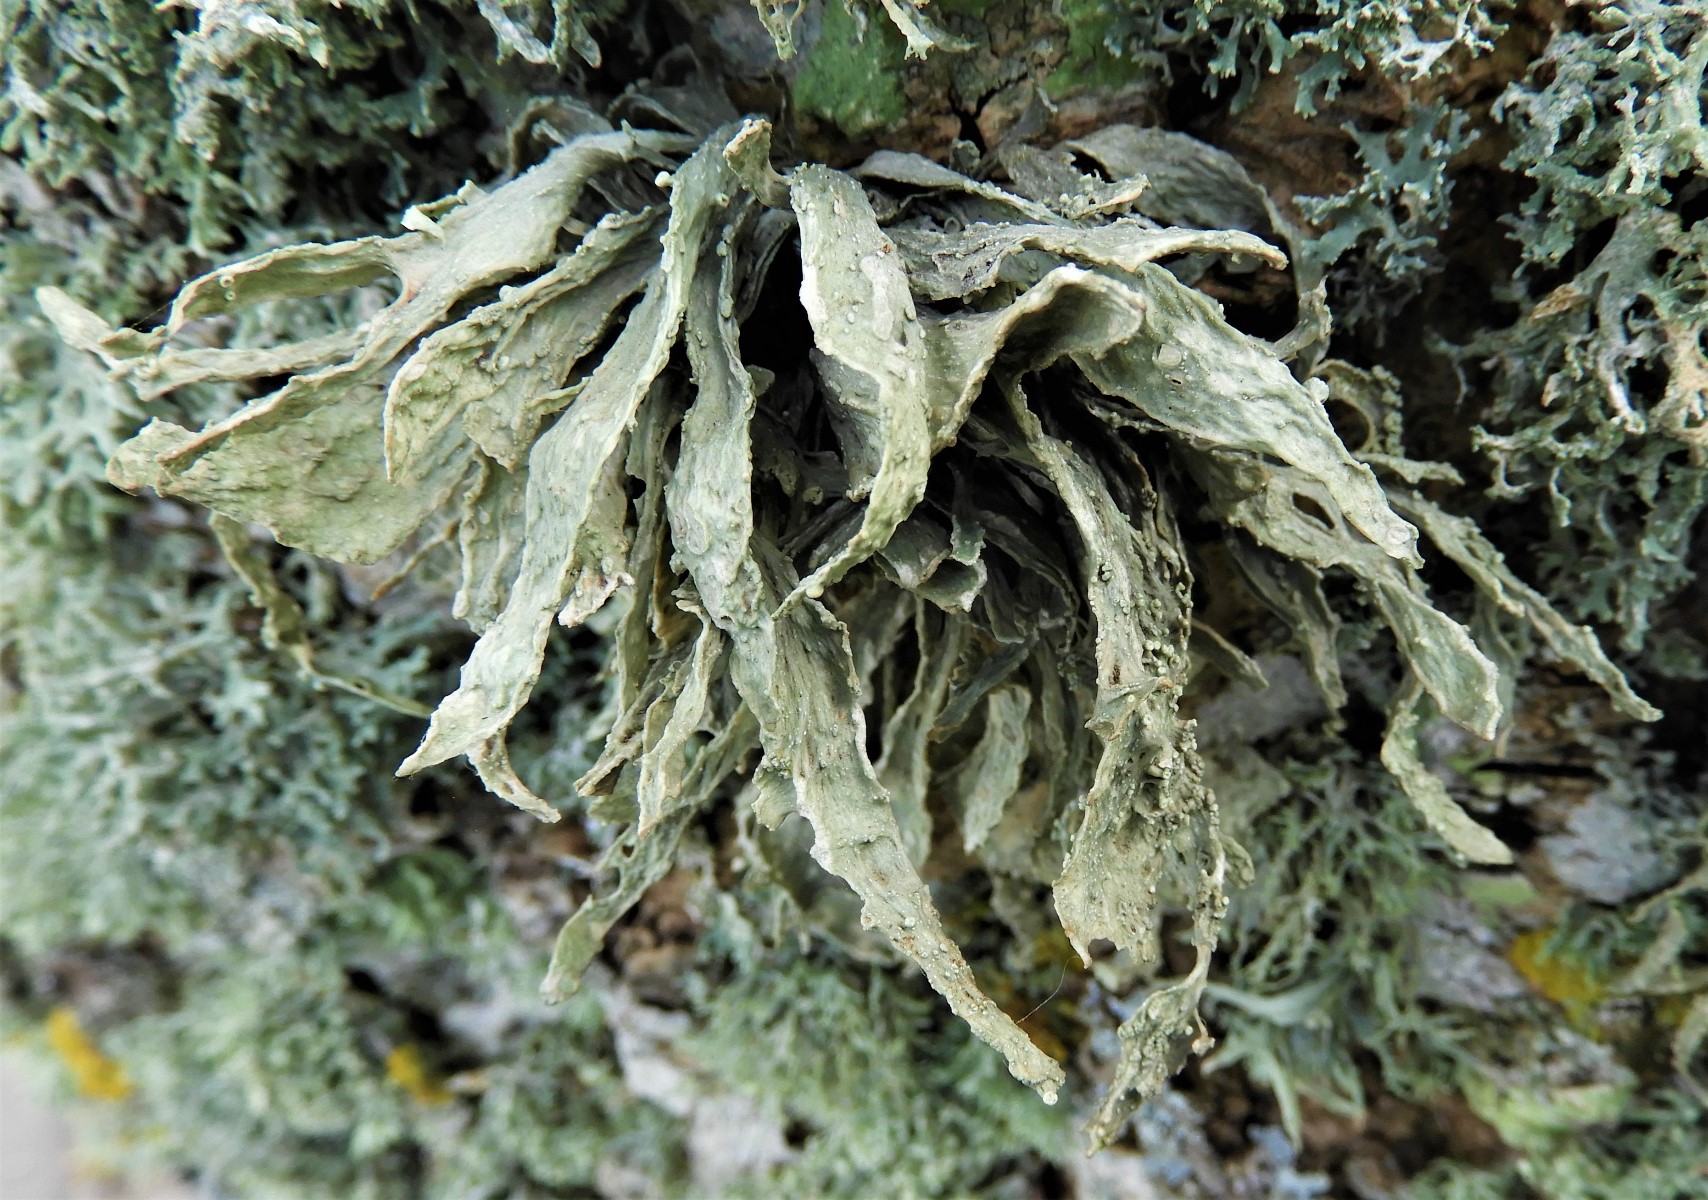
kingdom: Fungi
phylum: Ascomycota
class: Lecanoromycetes
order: Lecanorales
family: Ramalinaceae
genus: Ramalina
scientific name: Ramalina fraxinea
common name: stor grenlav
